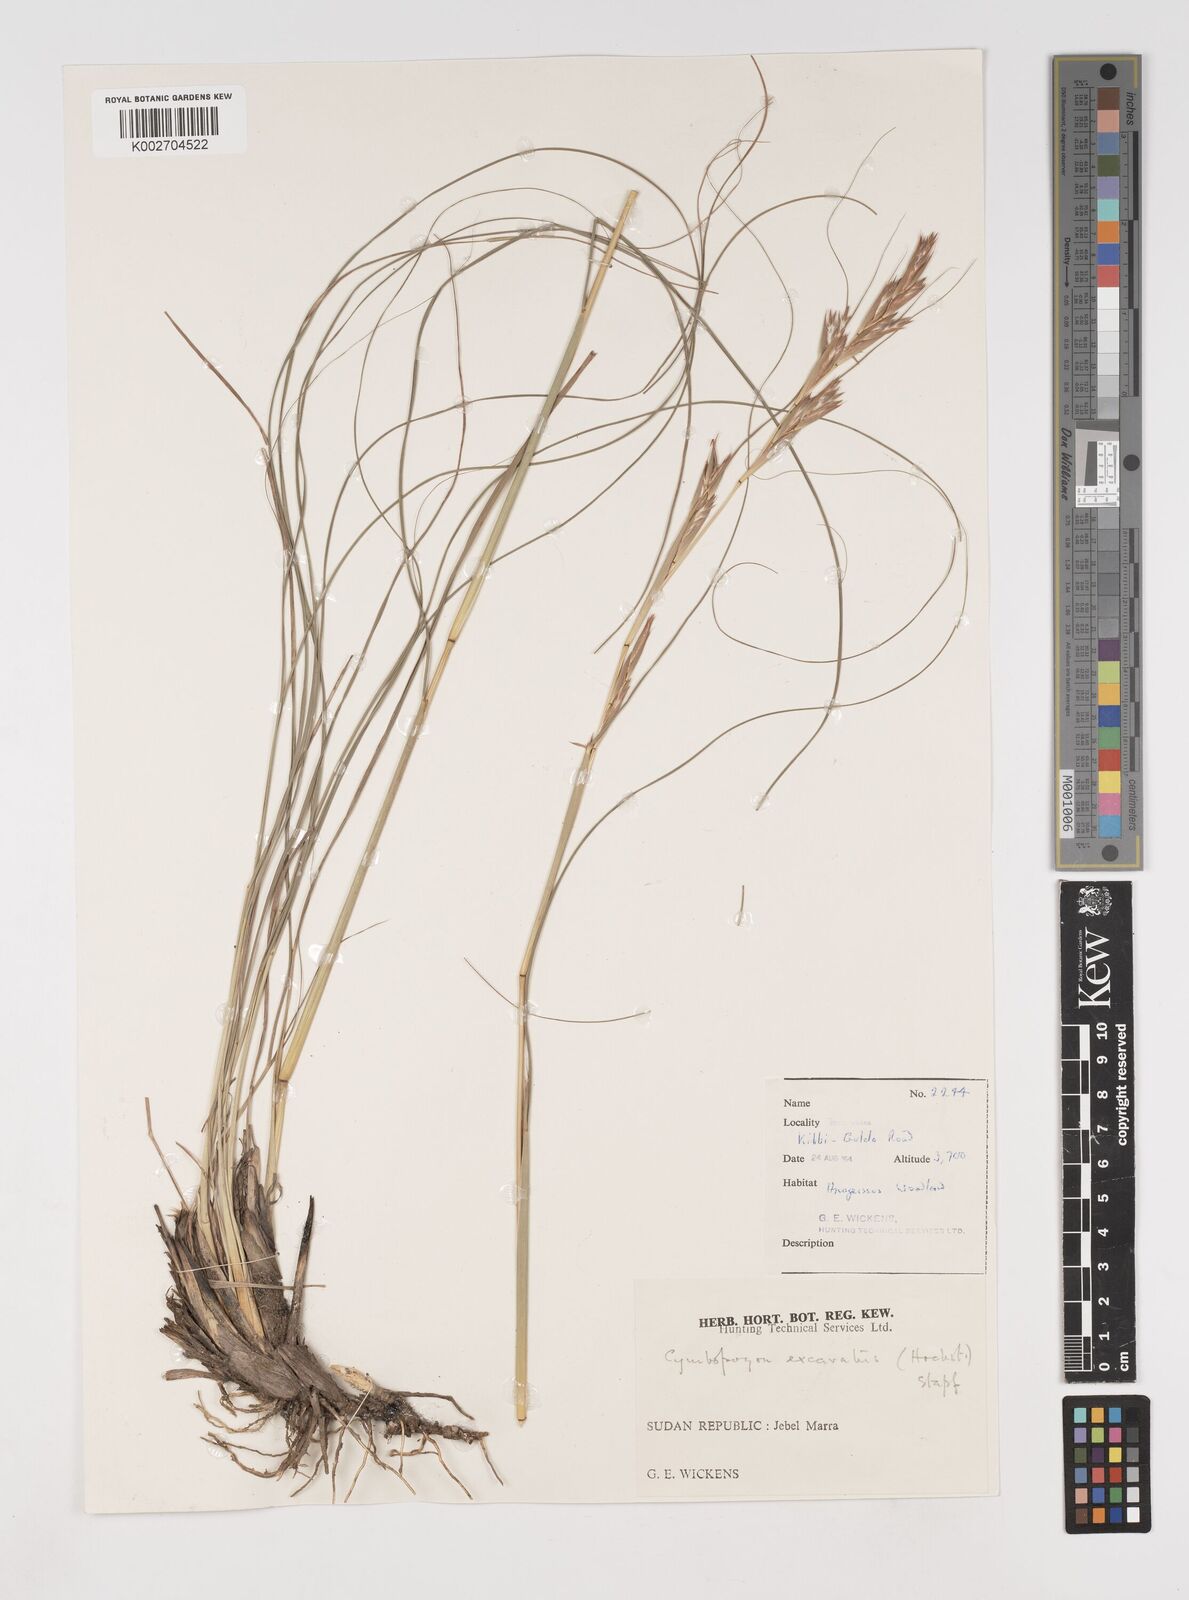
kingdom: Plantae
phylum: Tracheophyta
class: Liliopsida
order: Poales
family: Poaceae
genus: Cymbopogon
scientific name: Cymbopogon schoenanthus
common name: Geranium grass
